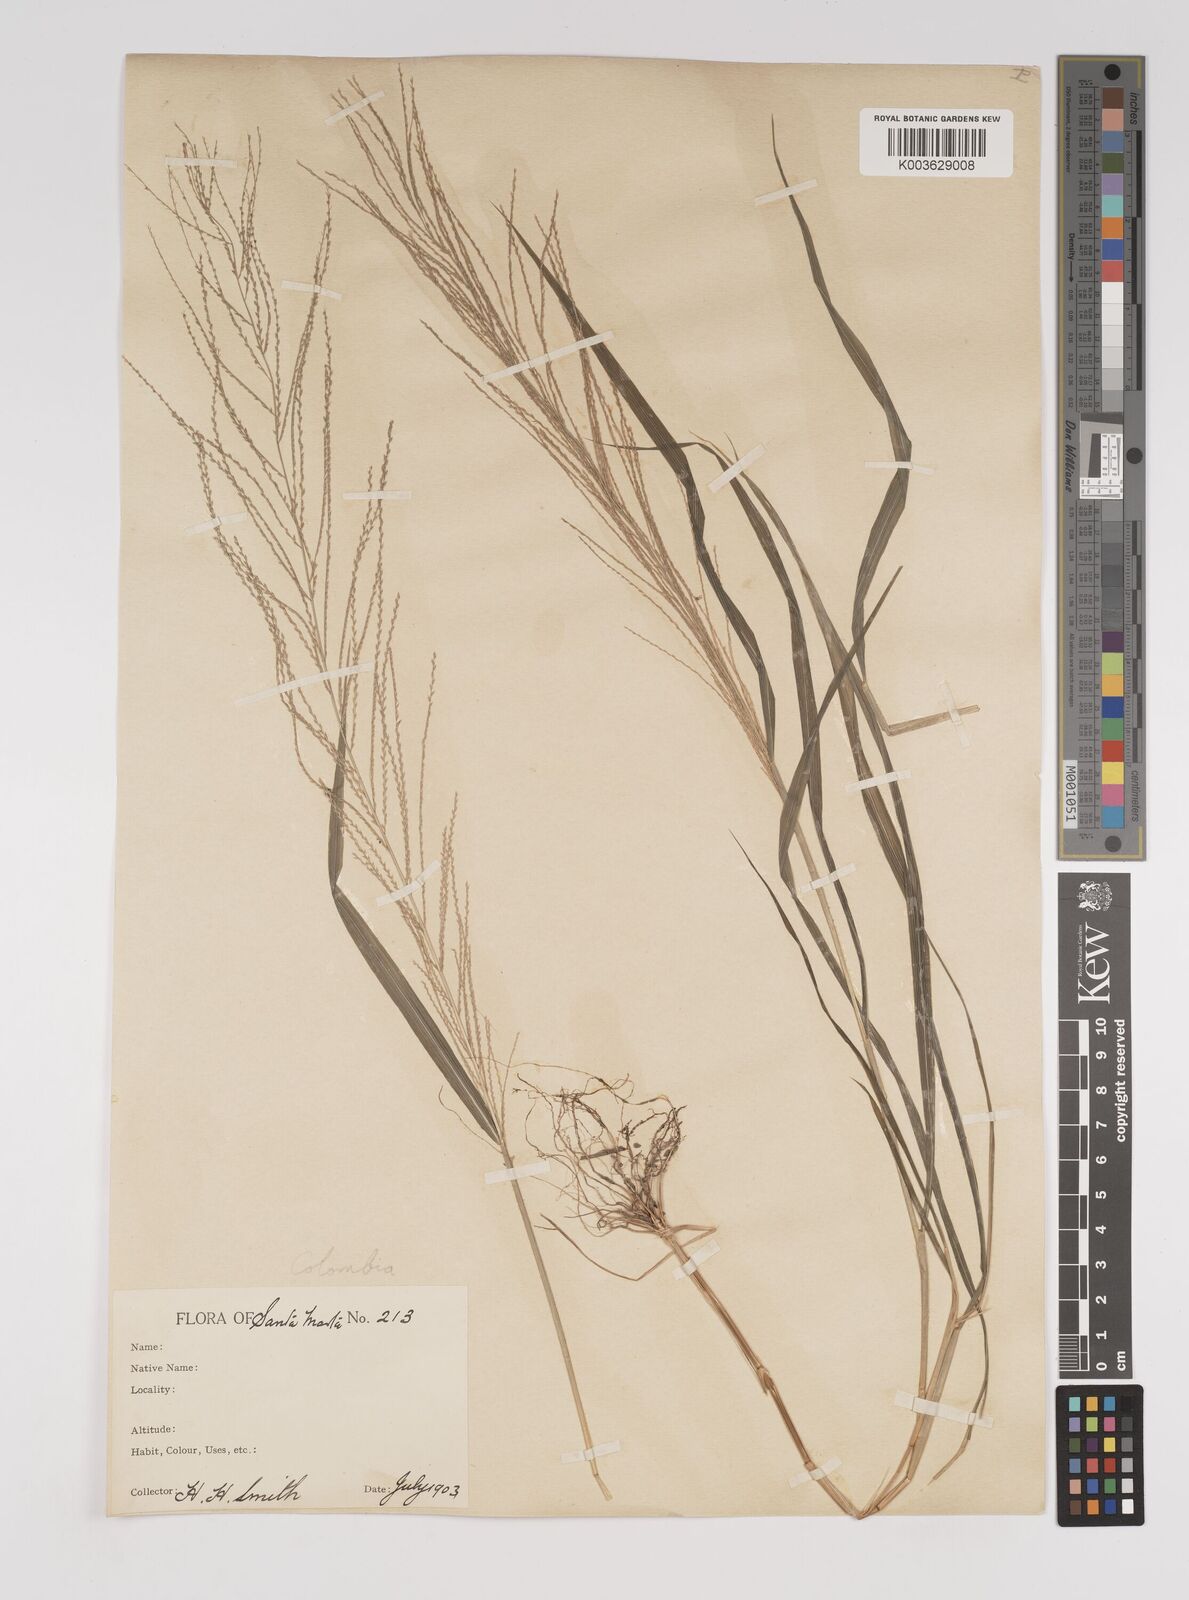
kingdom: Plantae
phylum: Tracheophyta
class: Liliopsida
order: Poales
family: Poaceae
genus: Leptochloa
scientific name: Leptochloa panicea
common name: Mucronate sprangletop
